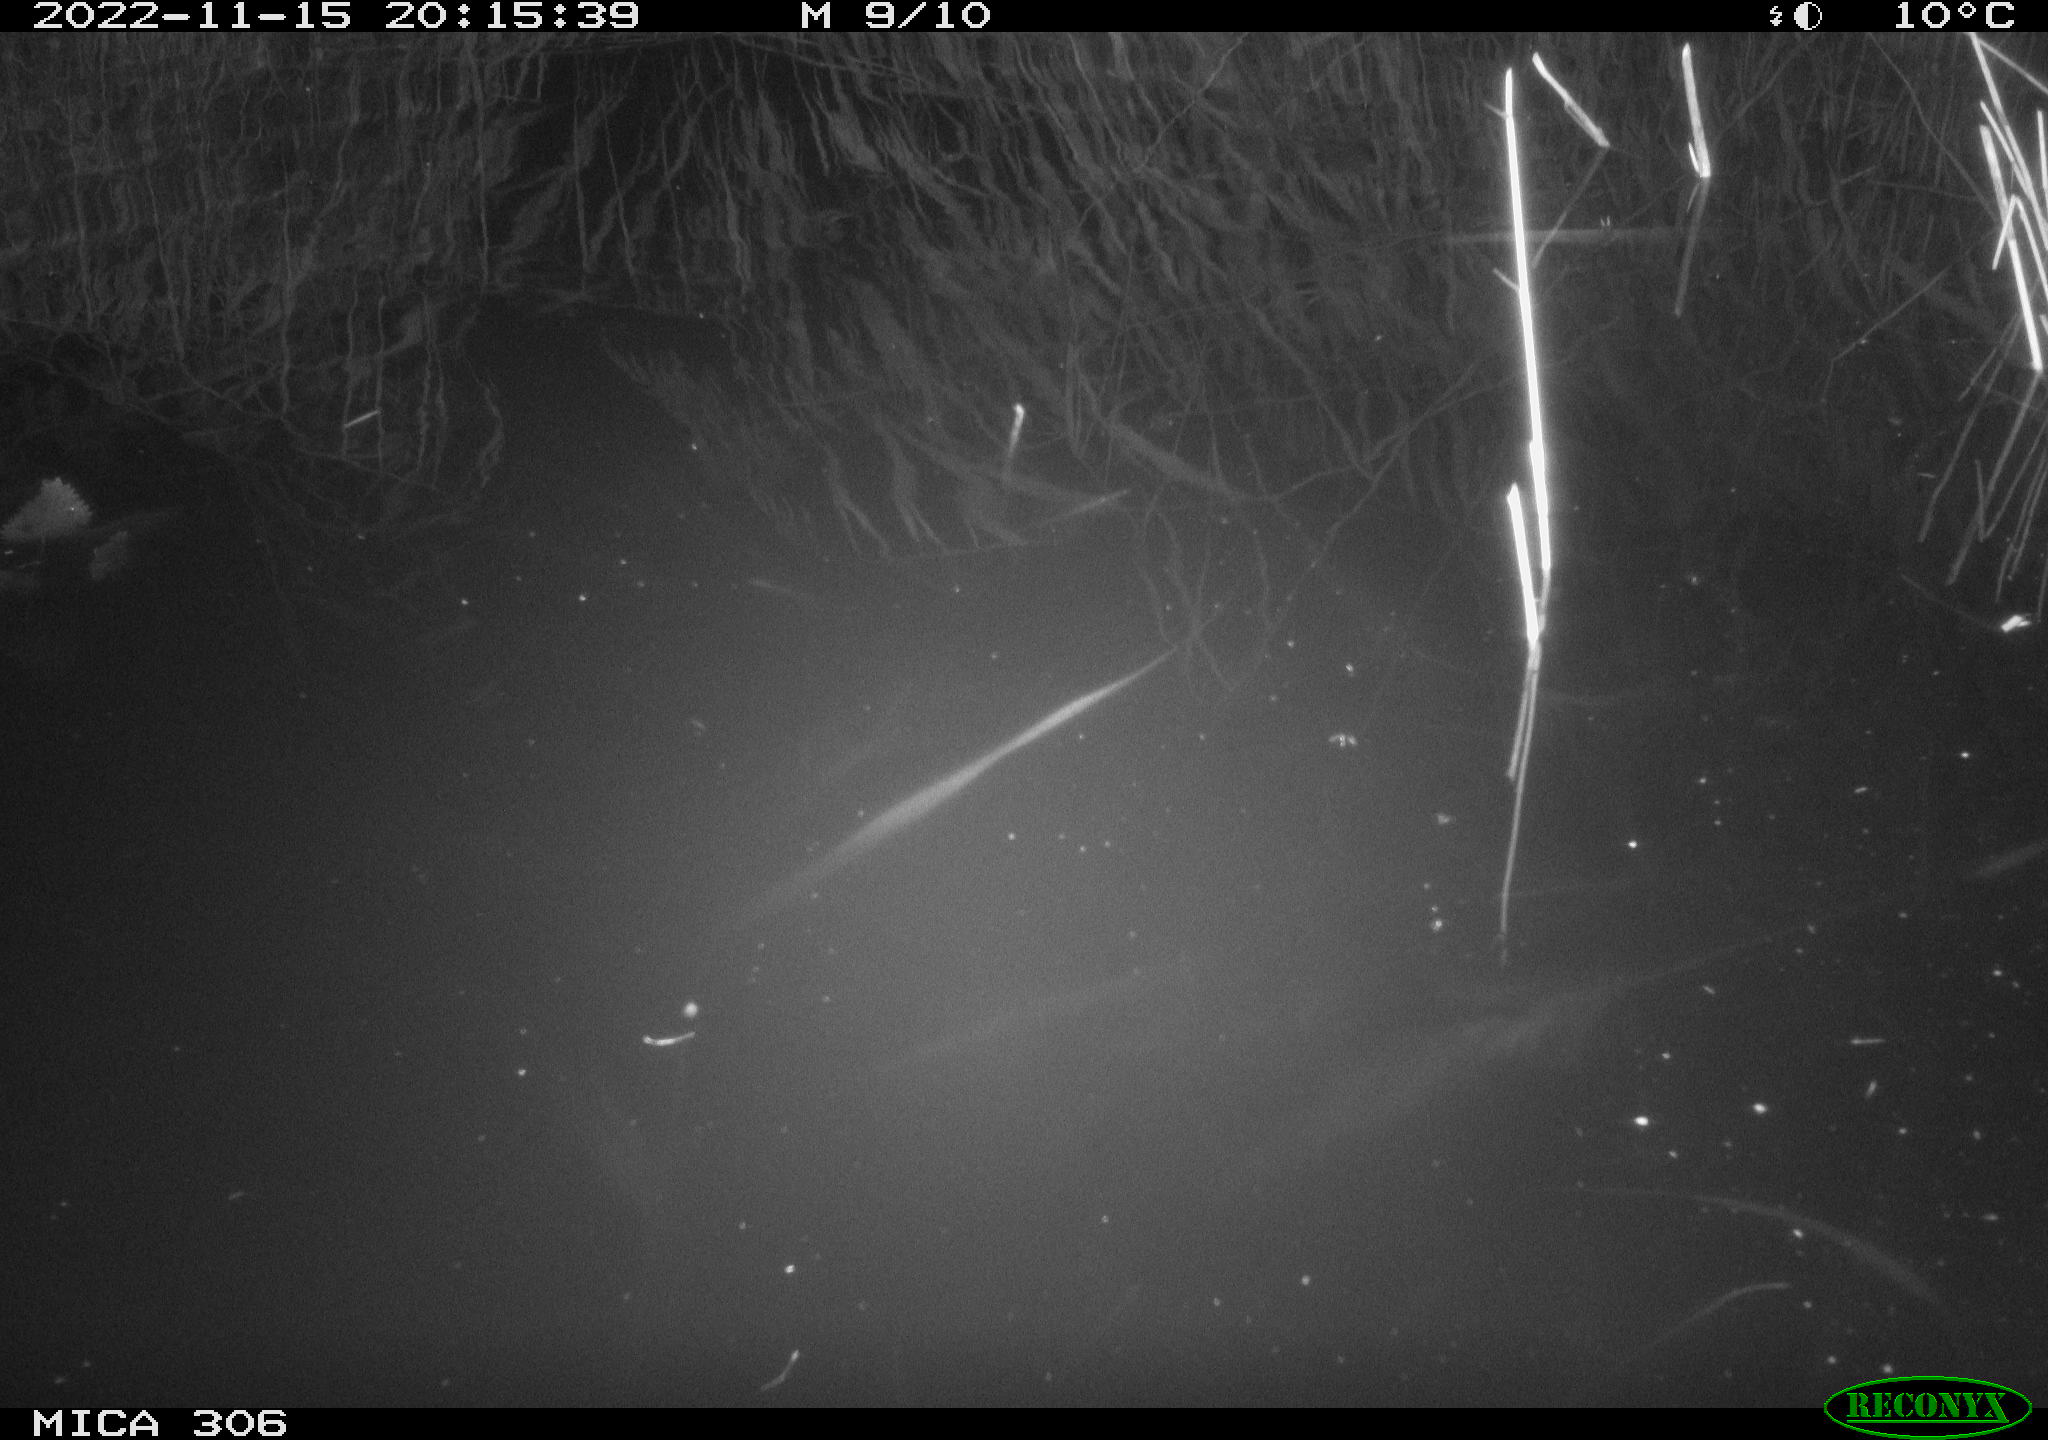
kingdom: Animalia
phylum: Chordata
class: Mammalia
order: Rodentia
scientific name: Rodentia
